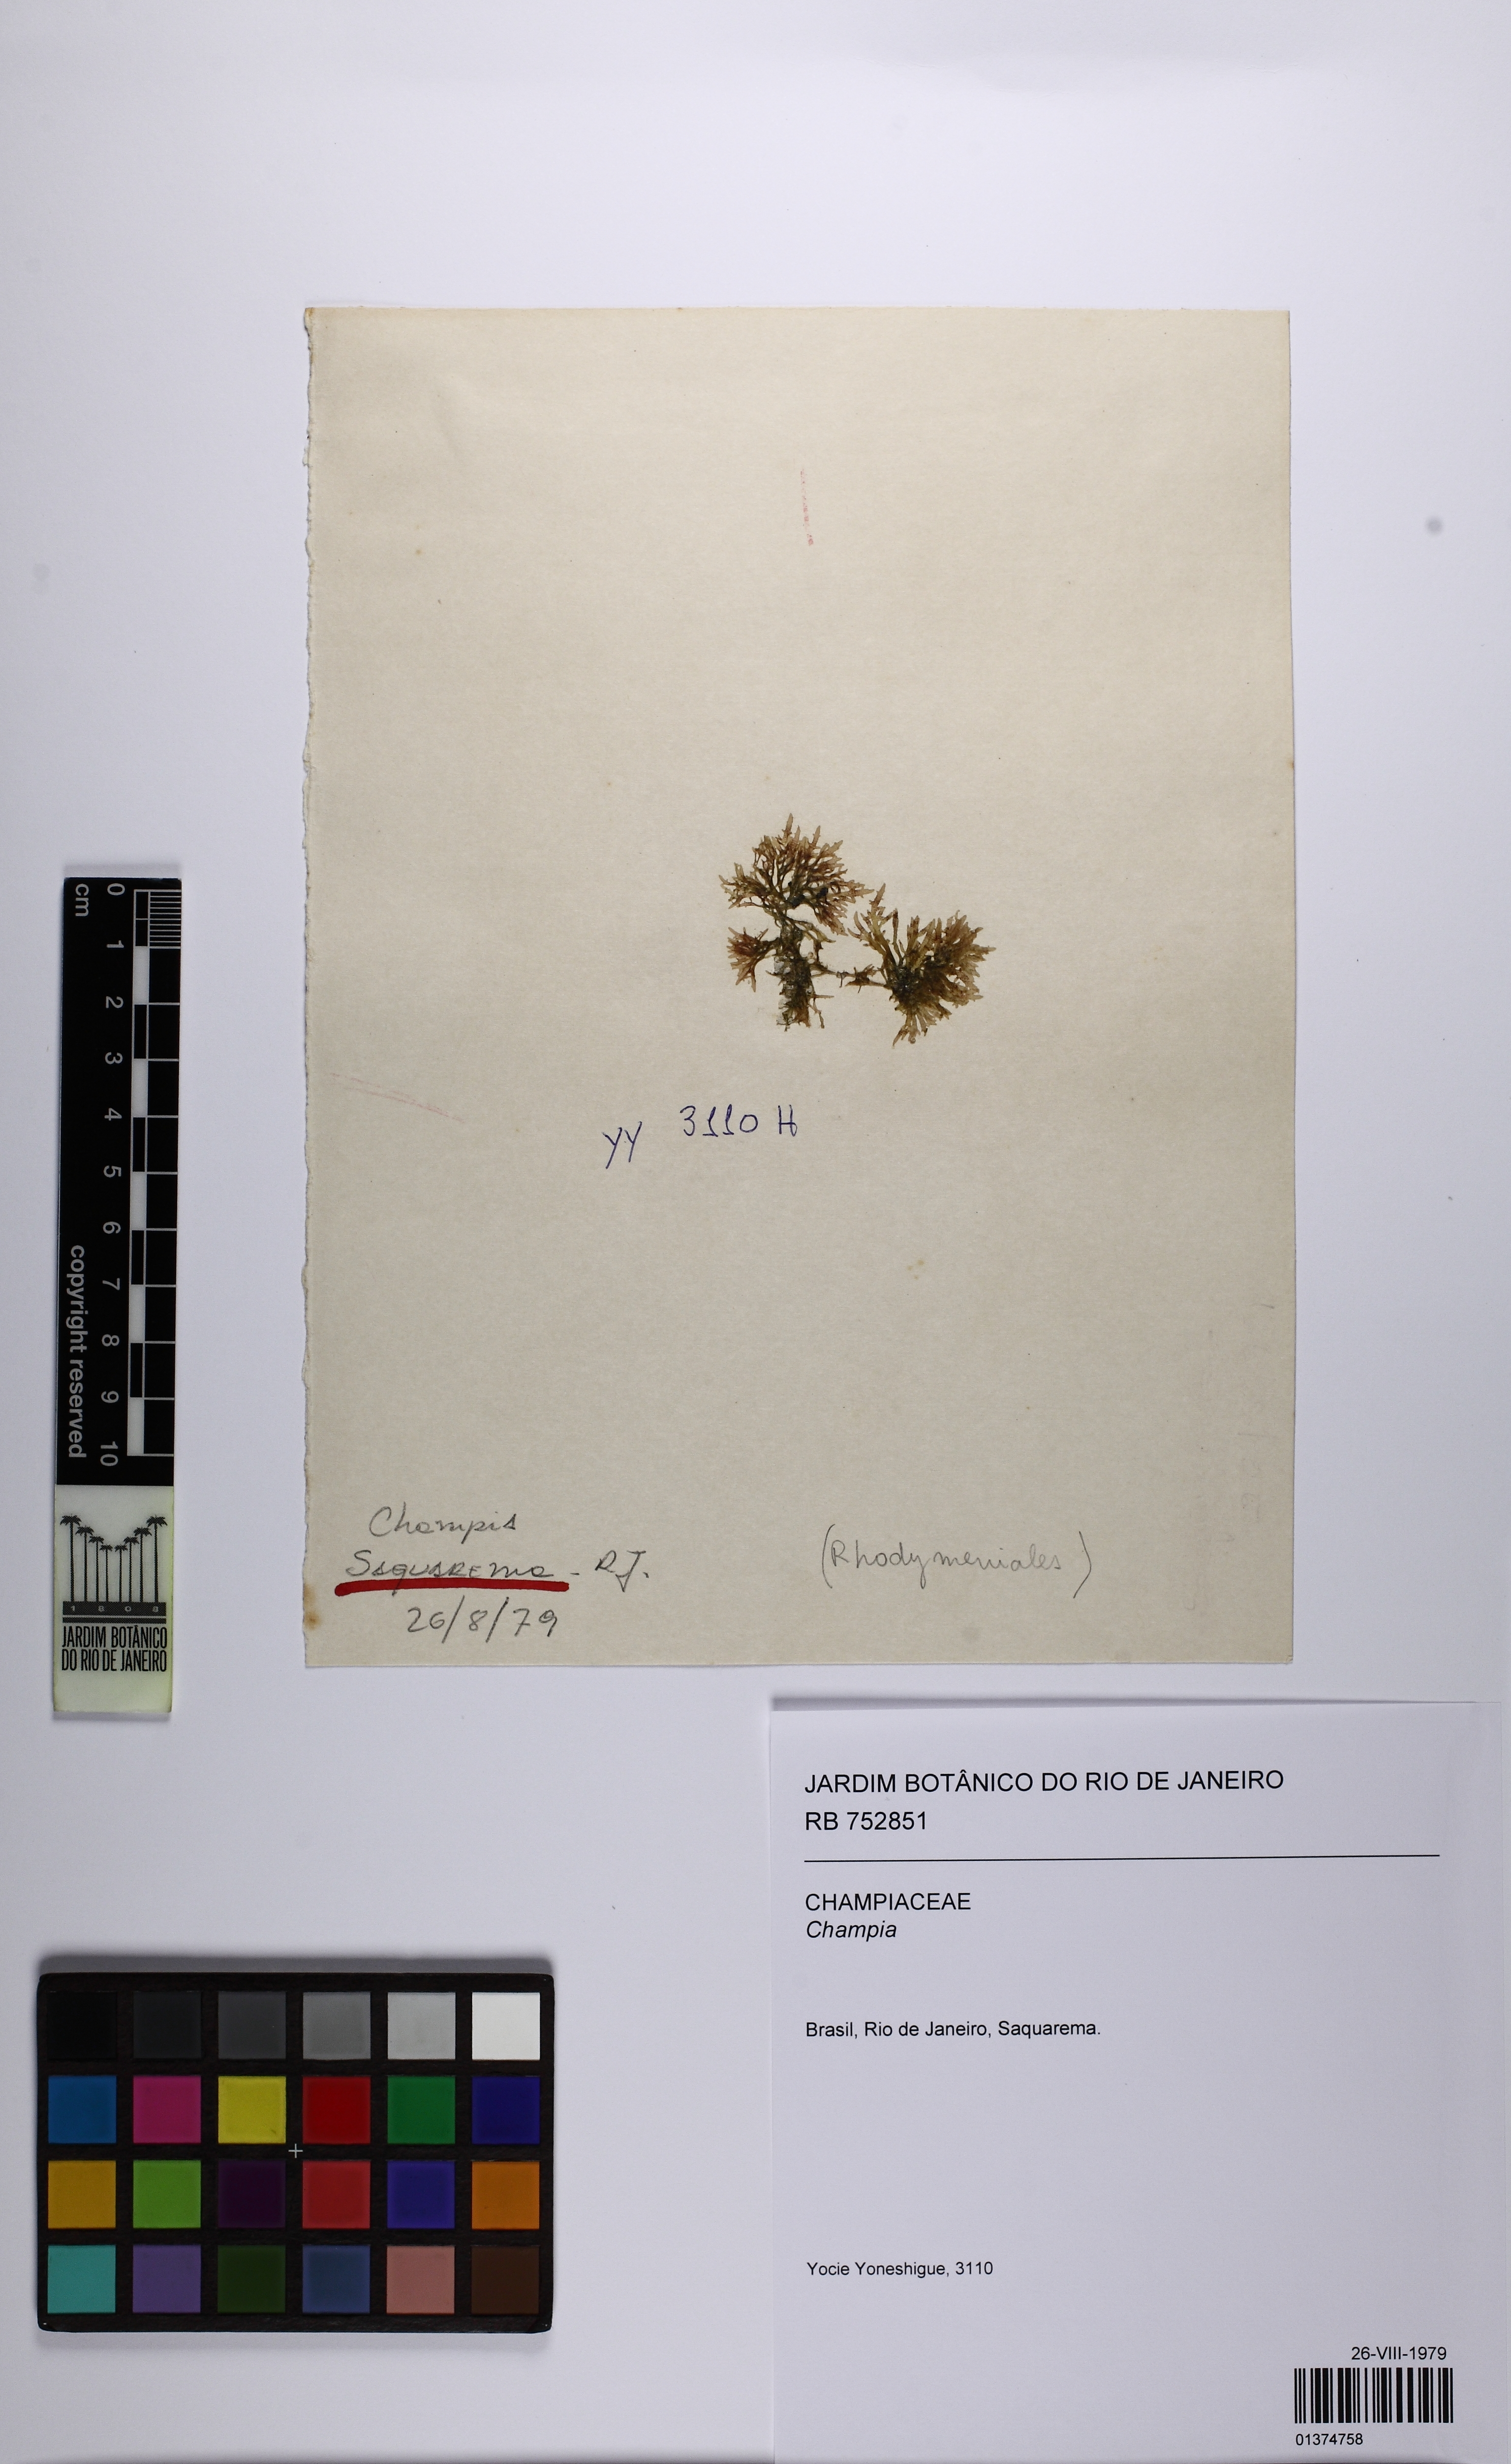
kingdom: Plantae
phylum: Rhodophyta
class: Florideophyceae
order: Rhodymeniales
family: Champiaceae
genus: Champia
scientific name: Champia
